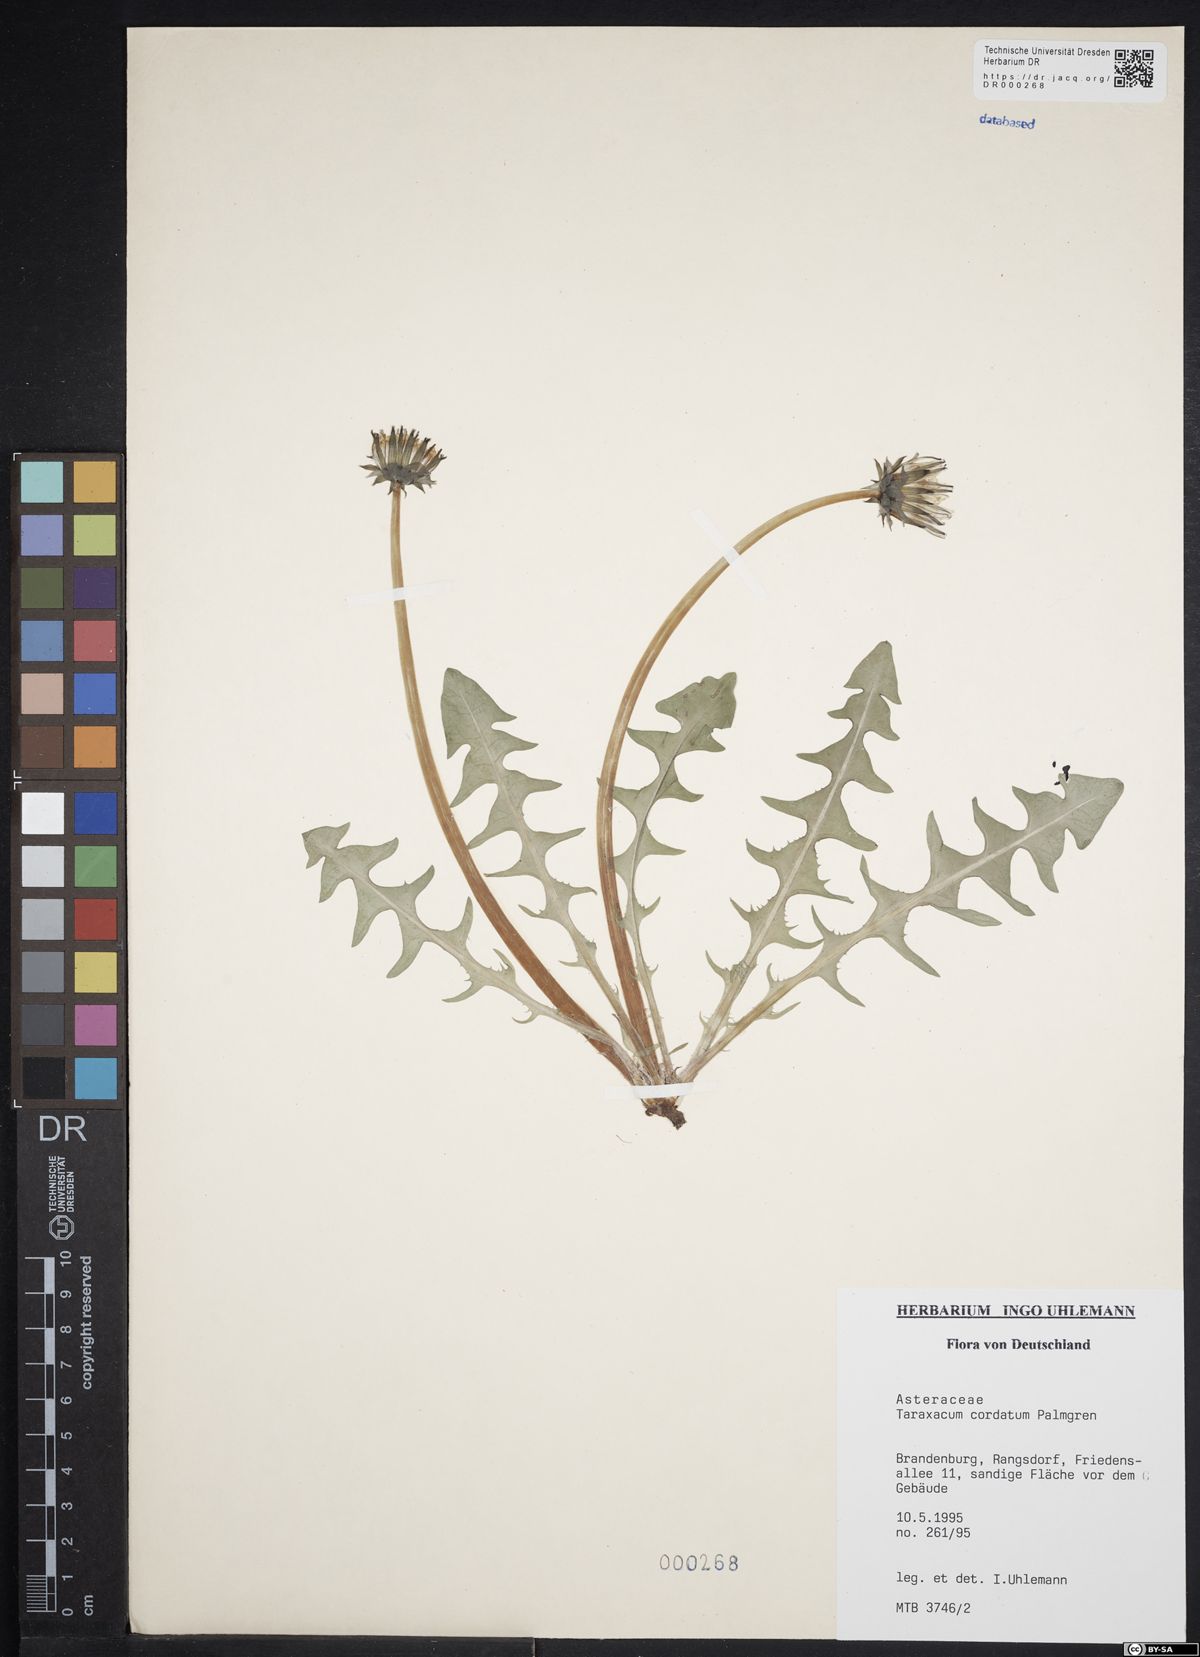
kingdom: Plantae
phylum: Tracheophyta
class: Magnoliopsida
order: Asterales
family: Asteraceae
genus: Taraxacum
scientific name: Taraxacum cordatum
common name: Entire-lobed dandelion
